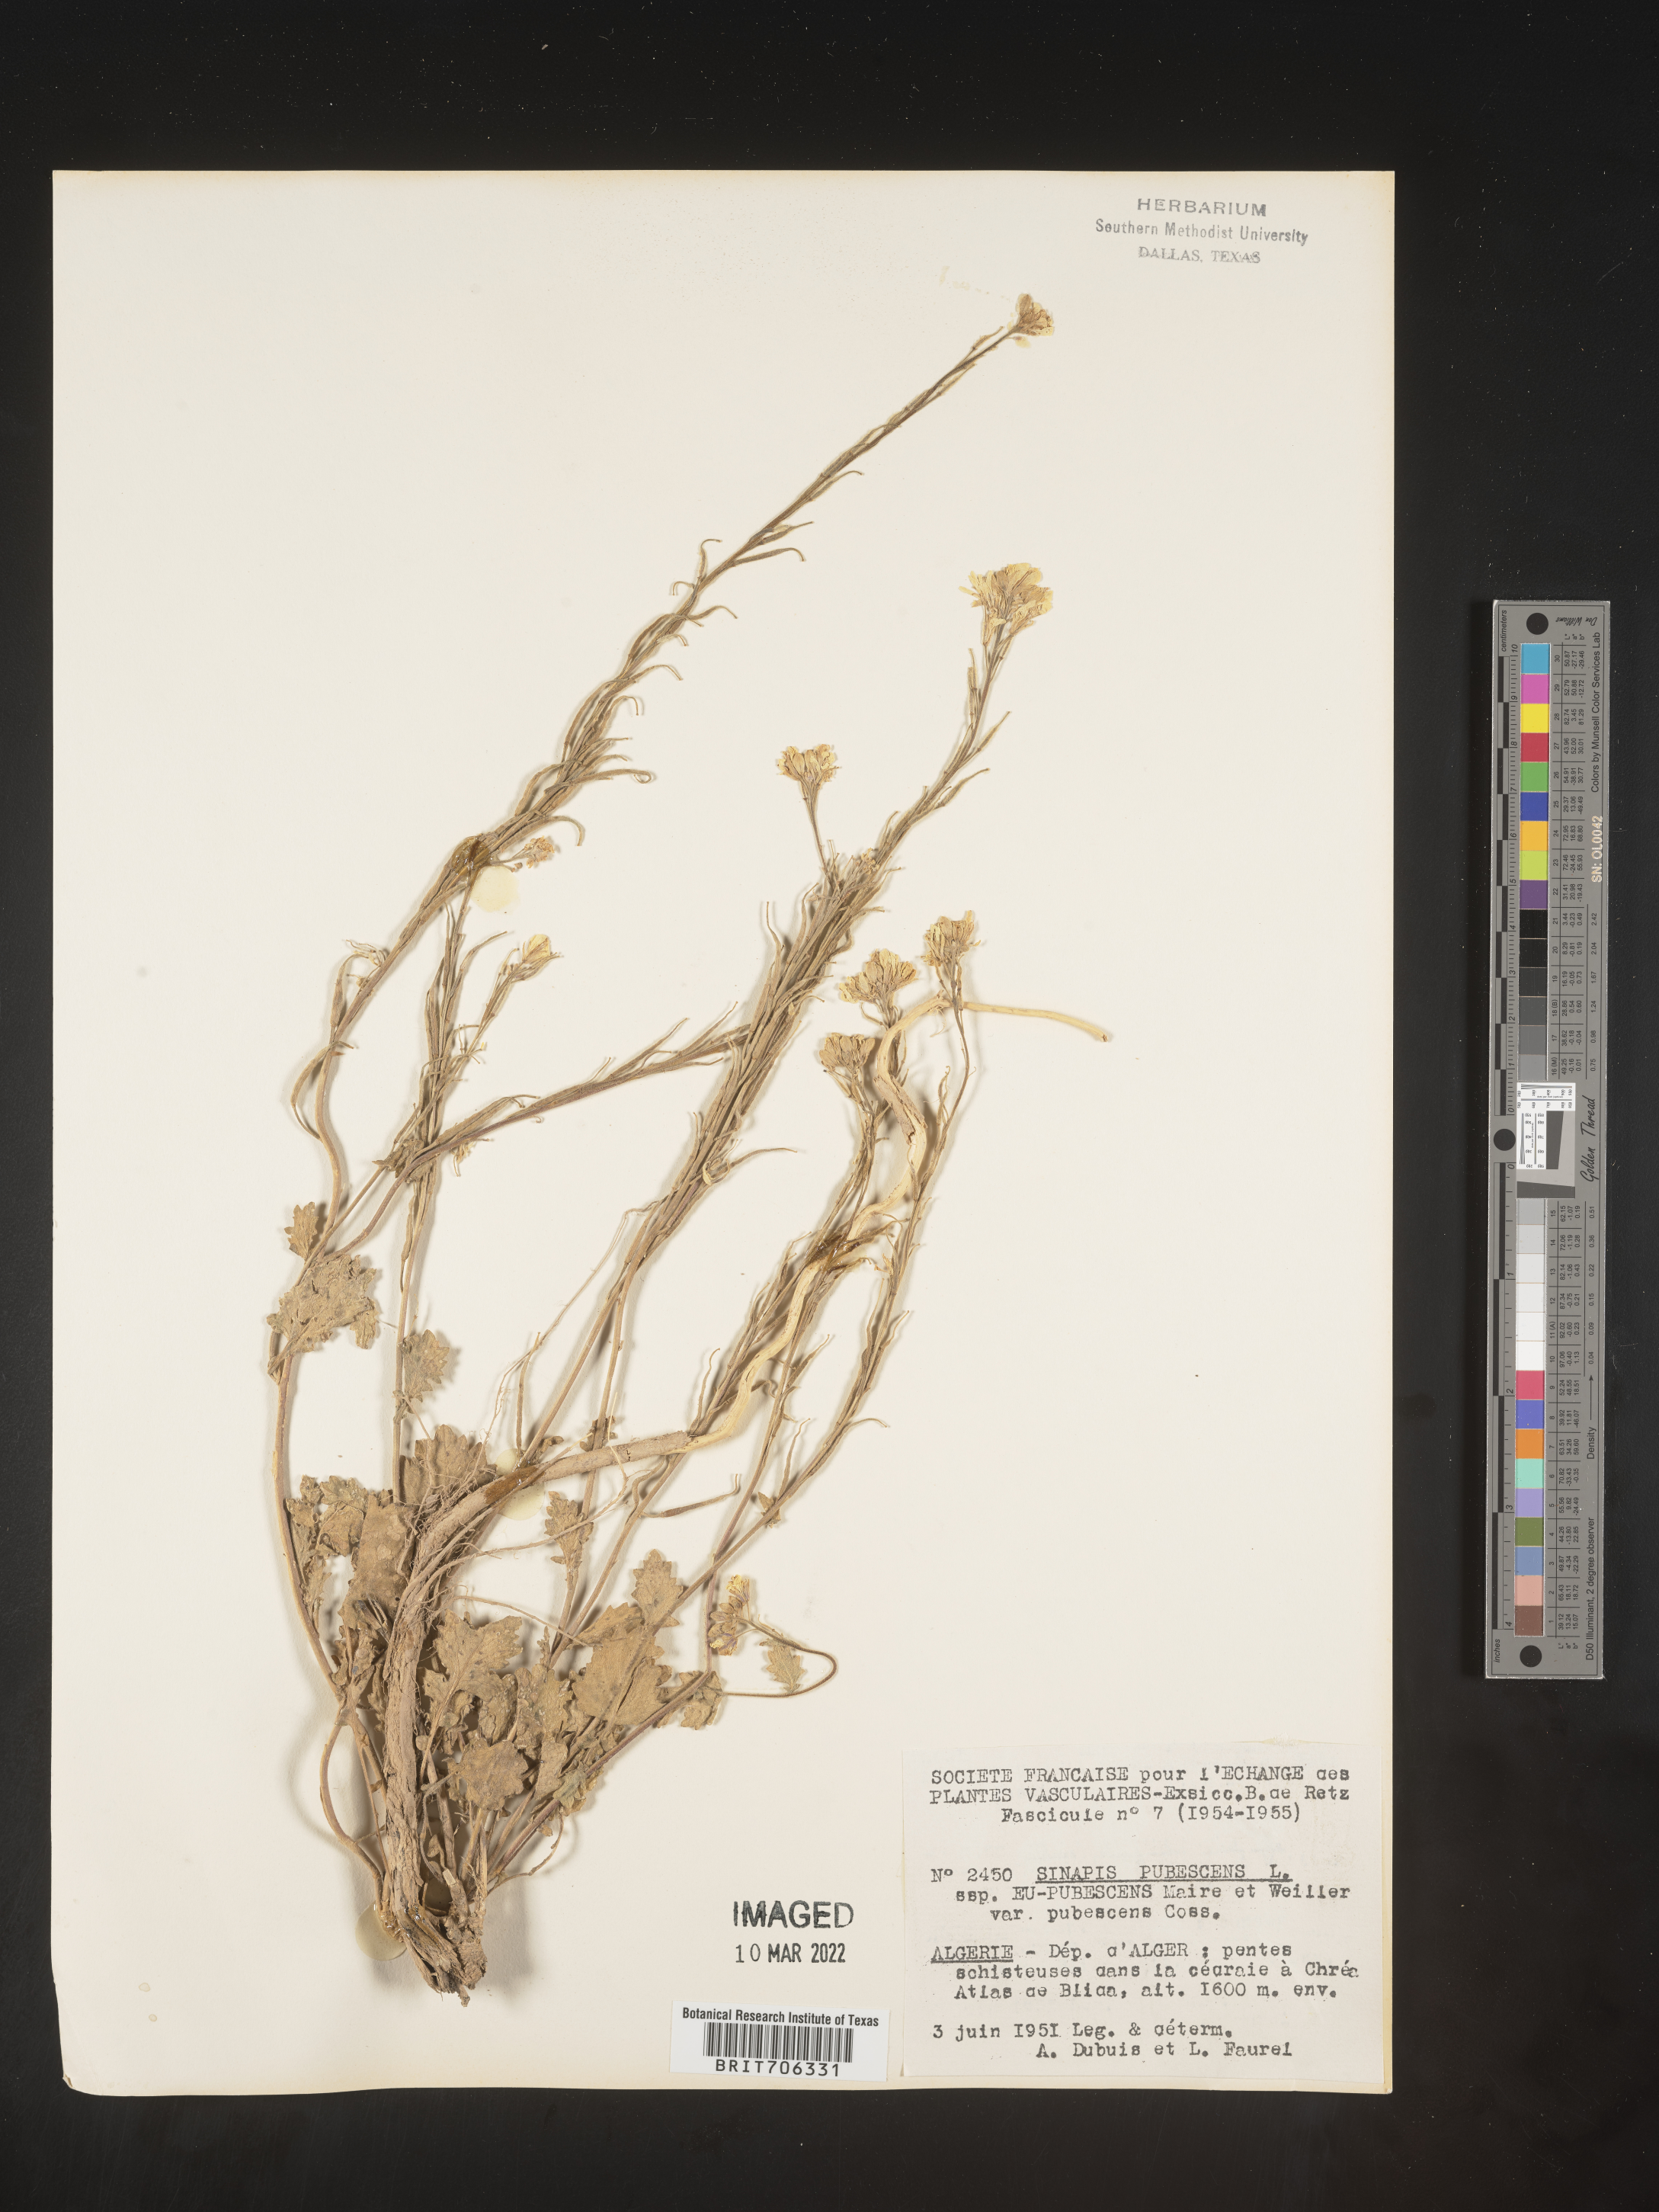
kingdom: Plantae
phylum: Tracheophyta
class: Magnoliopsida
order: Brassicales
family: Brassicaceae
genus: Brassica
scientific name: Brassica
